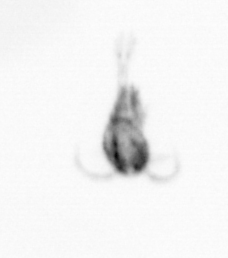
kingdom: Animalia
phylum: Arthropoda
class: Copepoda
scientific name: Copepoda
